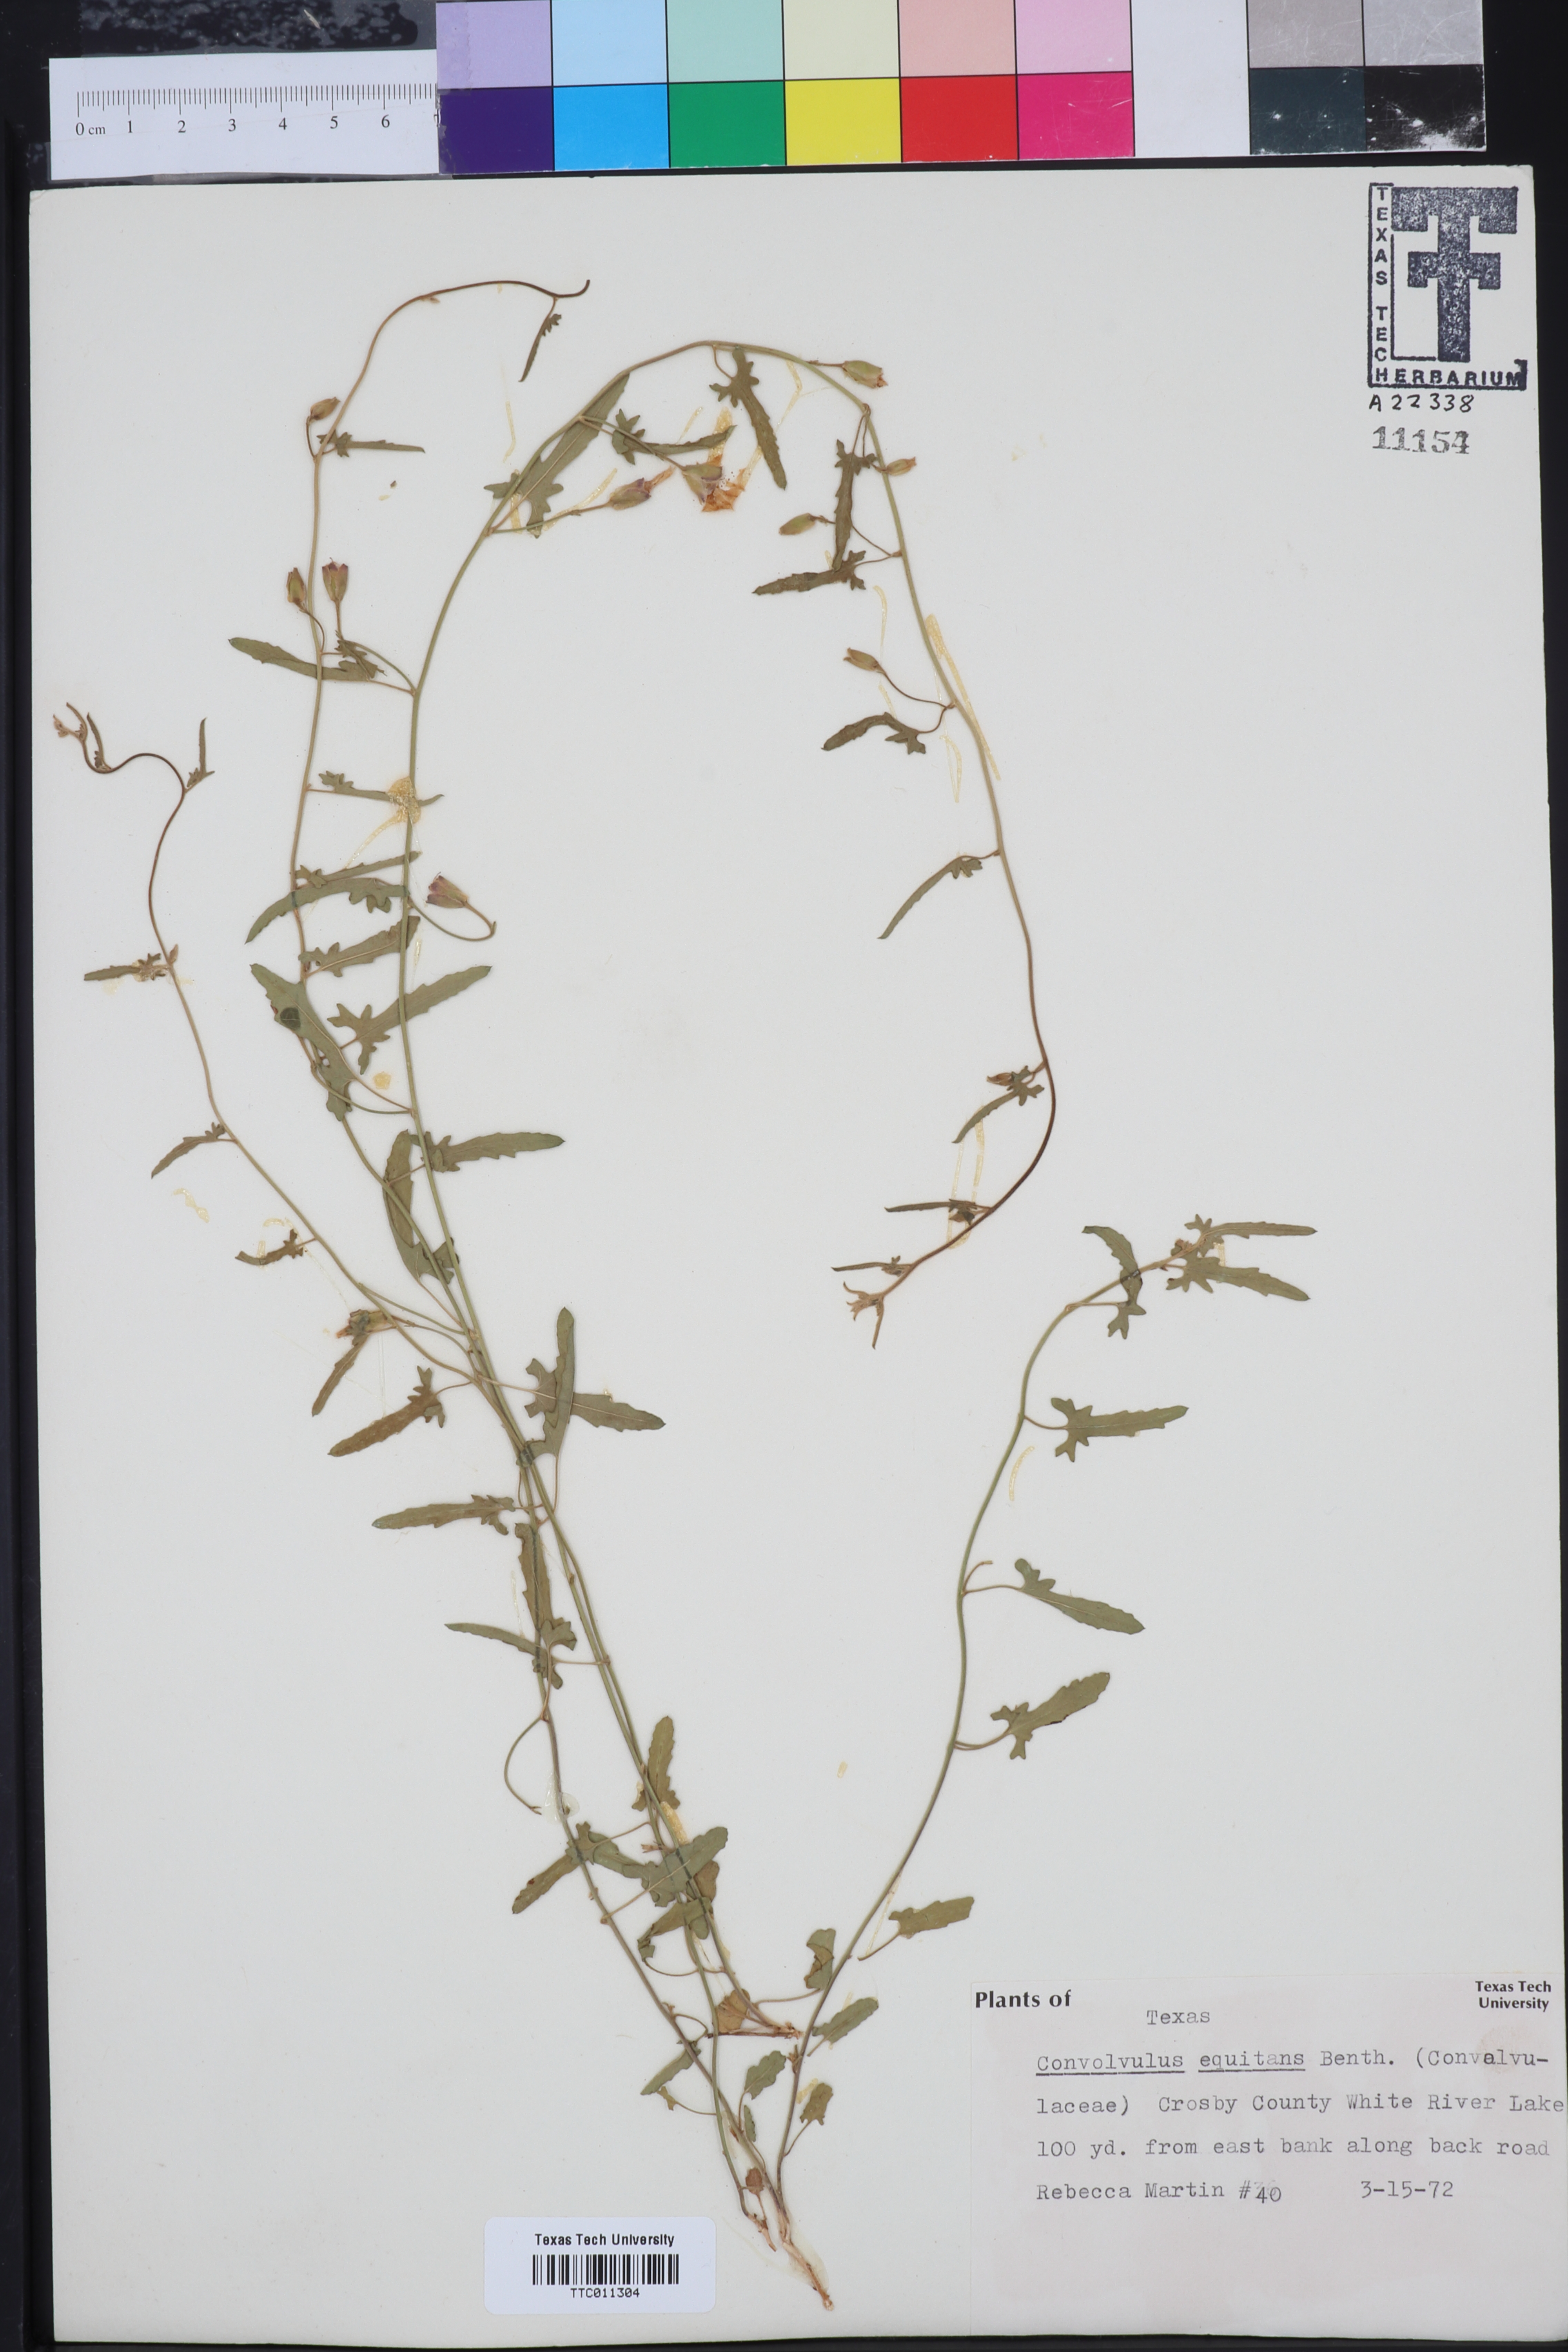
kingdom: Plantae
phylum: Tracheophyta
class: Magnoliopsida
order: Solanales
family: Convolvulaceae
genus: Convolvulus
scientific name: Convolvulus equitans
